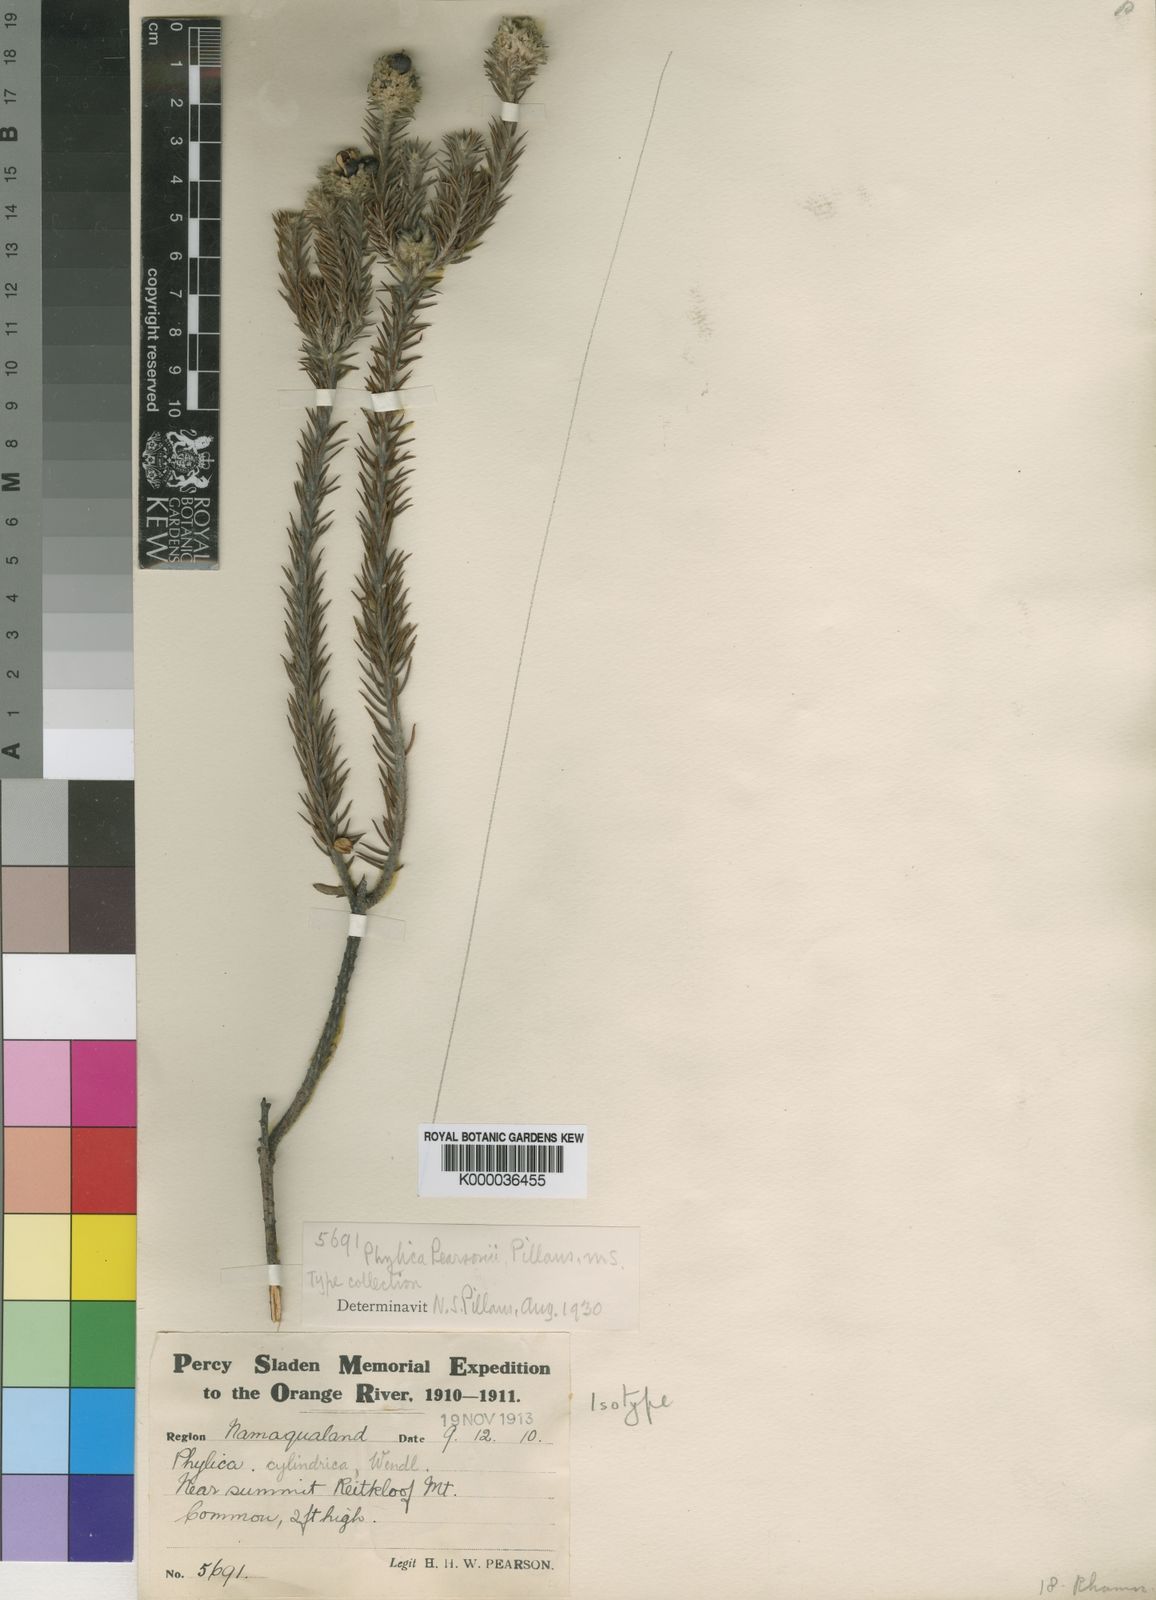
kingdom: Plantae
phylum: Tracheophyta
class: Magnoliopsida
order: Rosales
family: Rhamnaceae
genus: Phylica
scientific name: Phylica pearsonii
